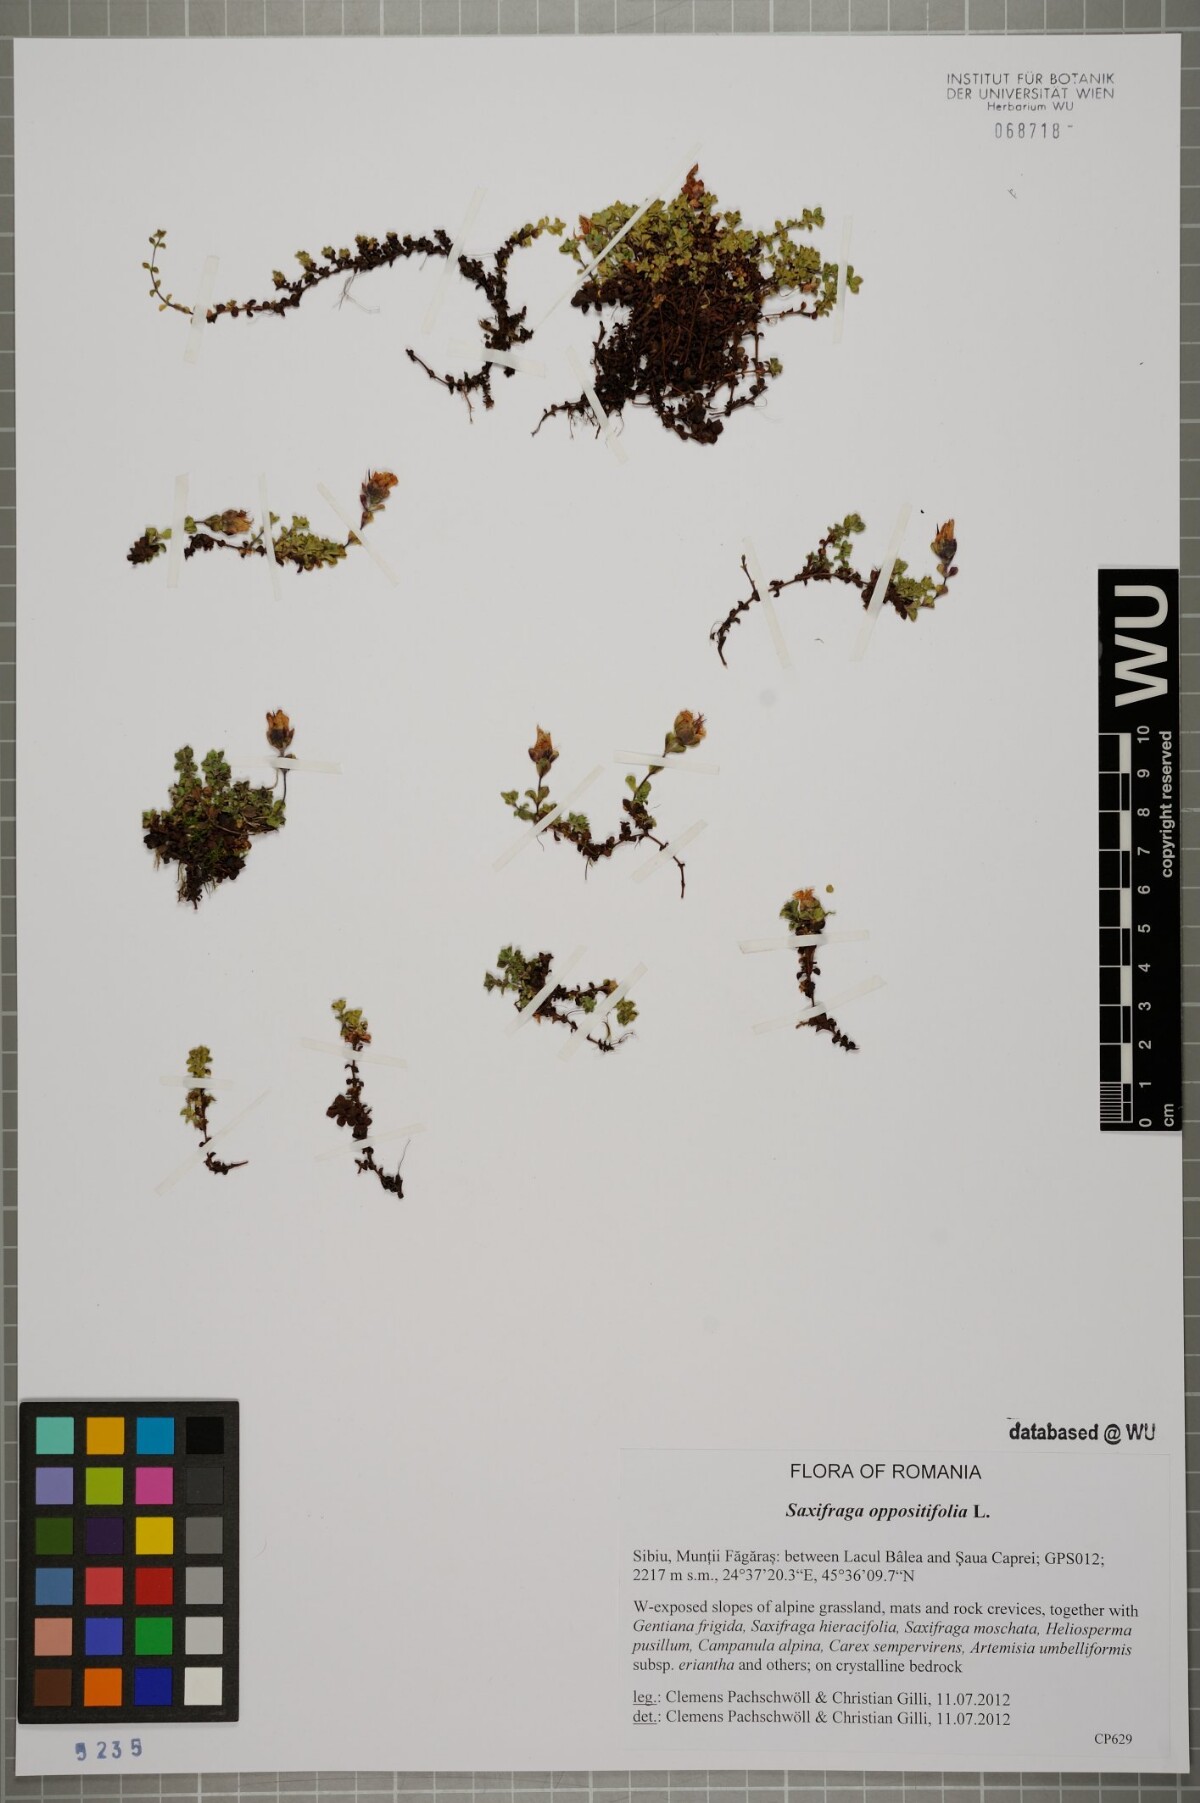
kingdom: Plantae
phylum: Tracheophyta
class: Magnoliopsida
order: Saxifragales
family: Saxifragaceae
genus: Saxifraga
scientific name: Saxifraga oppositifolia
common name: Purple saxifrage
